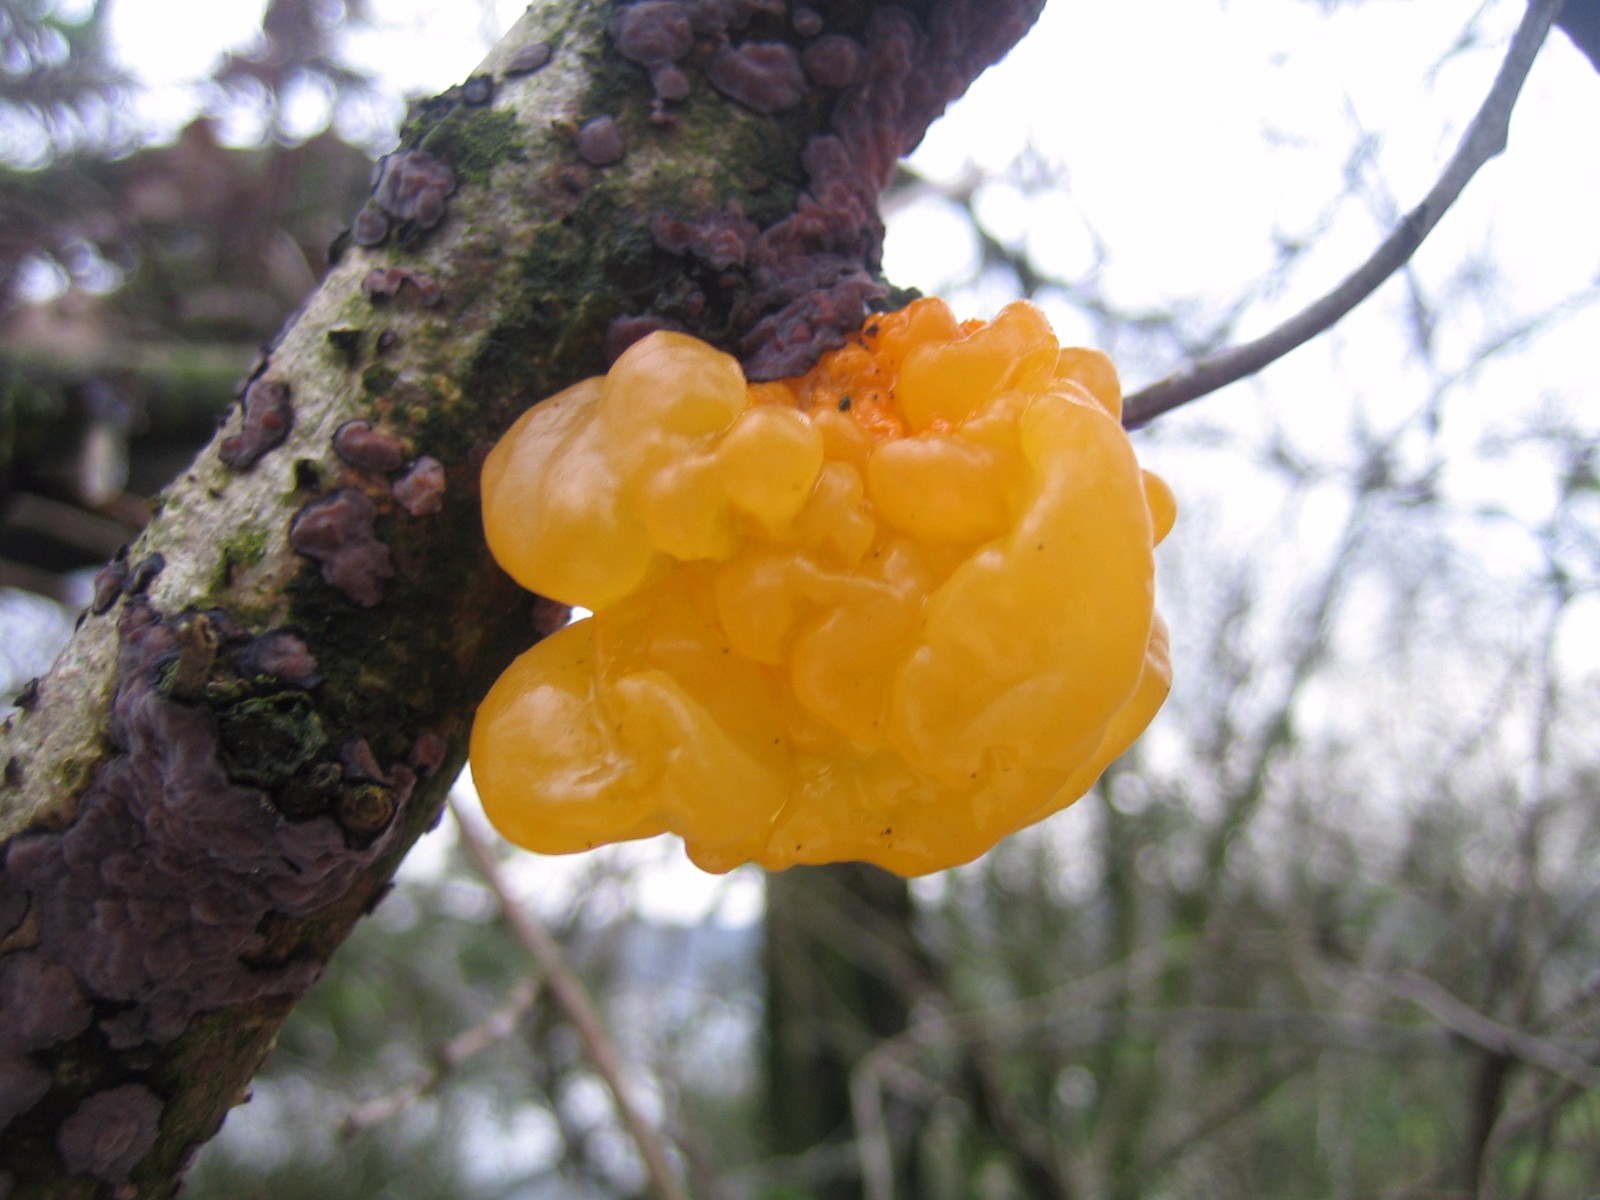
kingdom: Fungi
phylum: Basidiomycota
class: Tremellomycetes
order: Tremellales
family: Tremellaceae
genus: Tremella
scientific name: Tremella mesenterica
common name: gul bævresvamp
